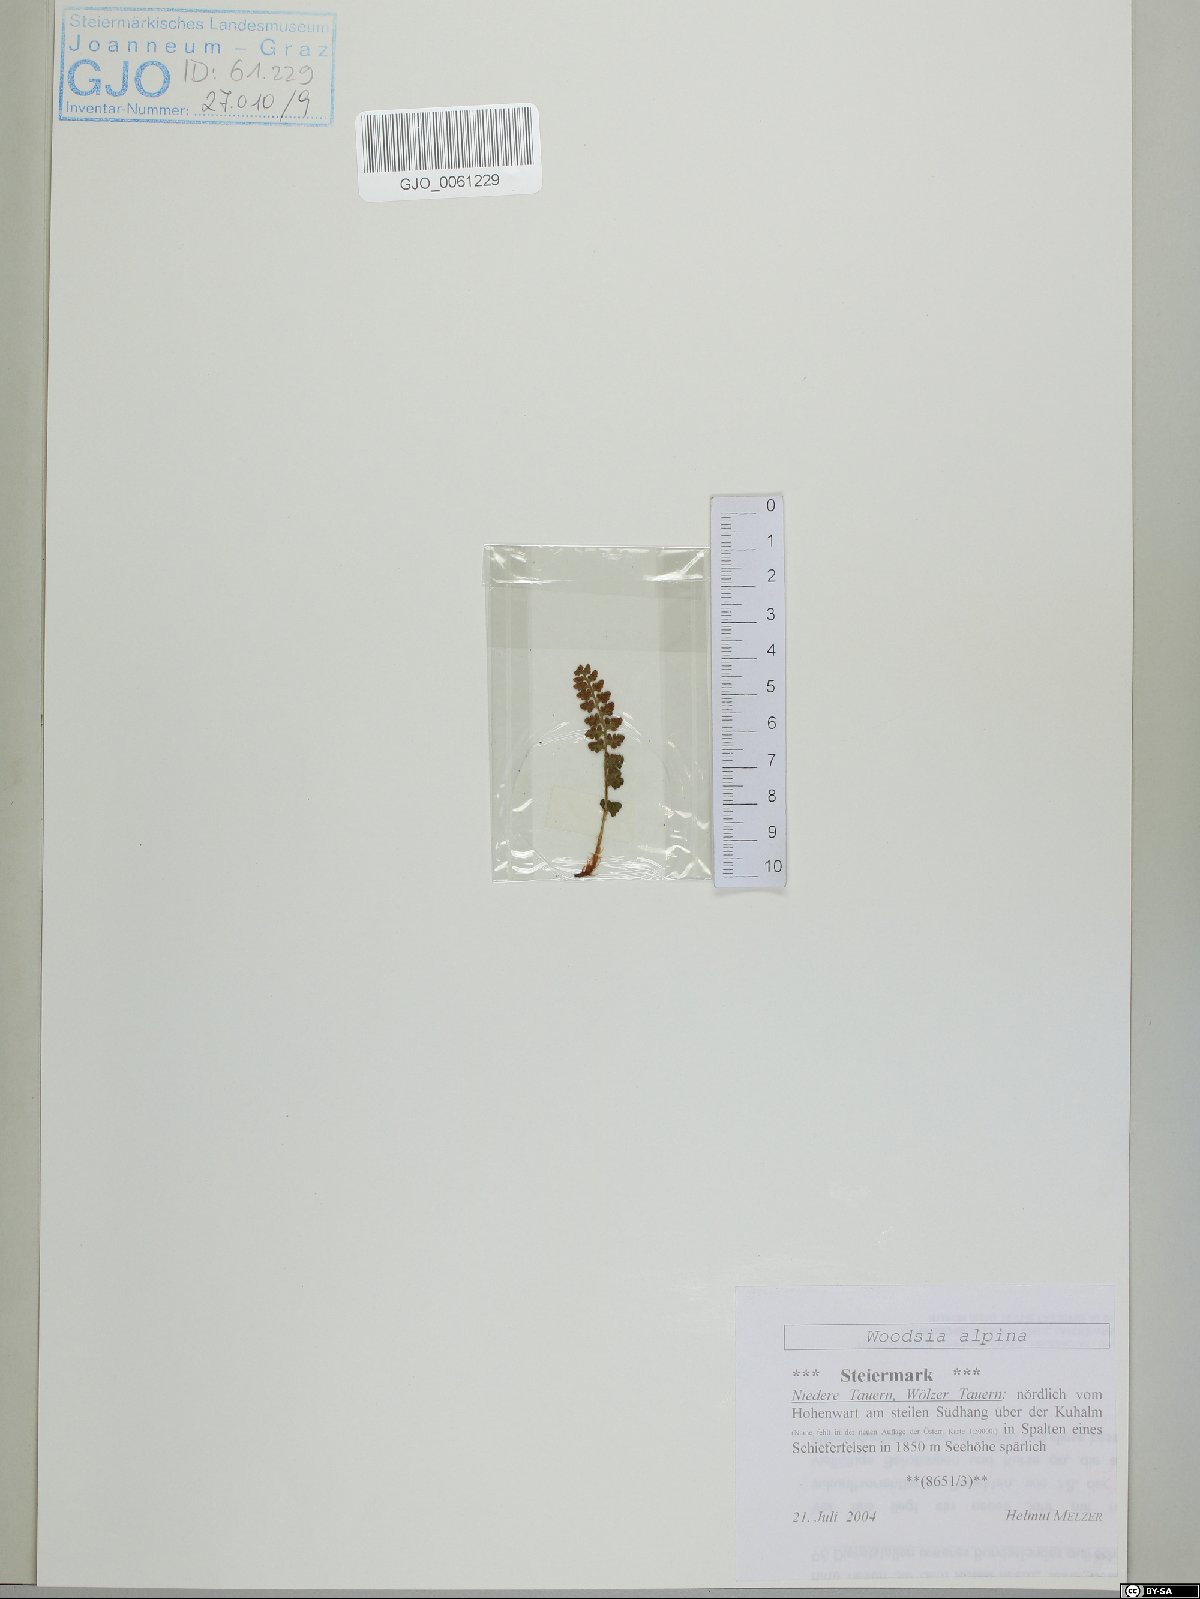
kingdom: Plantae
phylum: Tracheophyta
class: Polypodiopsida
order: Polypodiales
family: Woodsiaceae
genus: Woodsia
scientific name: Woodsia alpina
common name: Alpine woodsia
